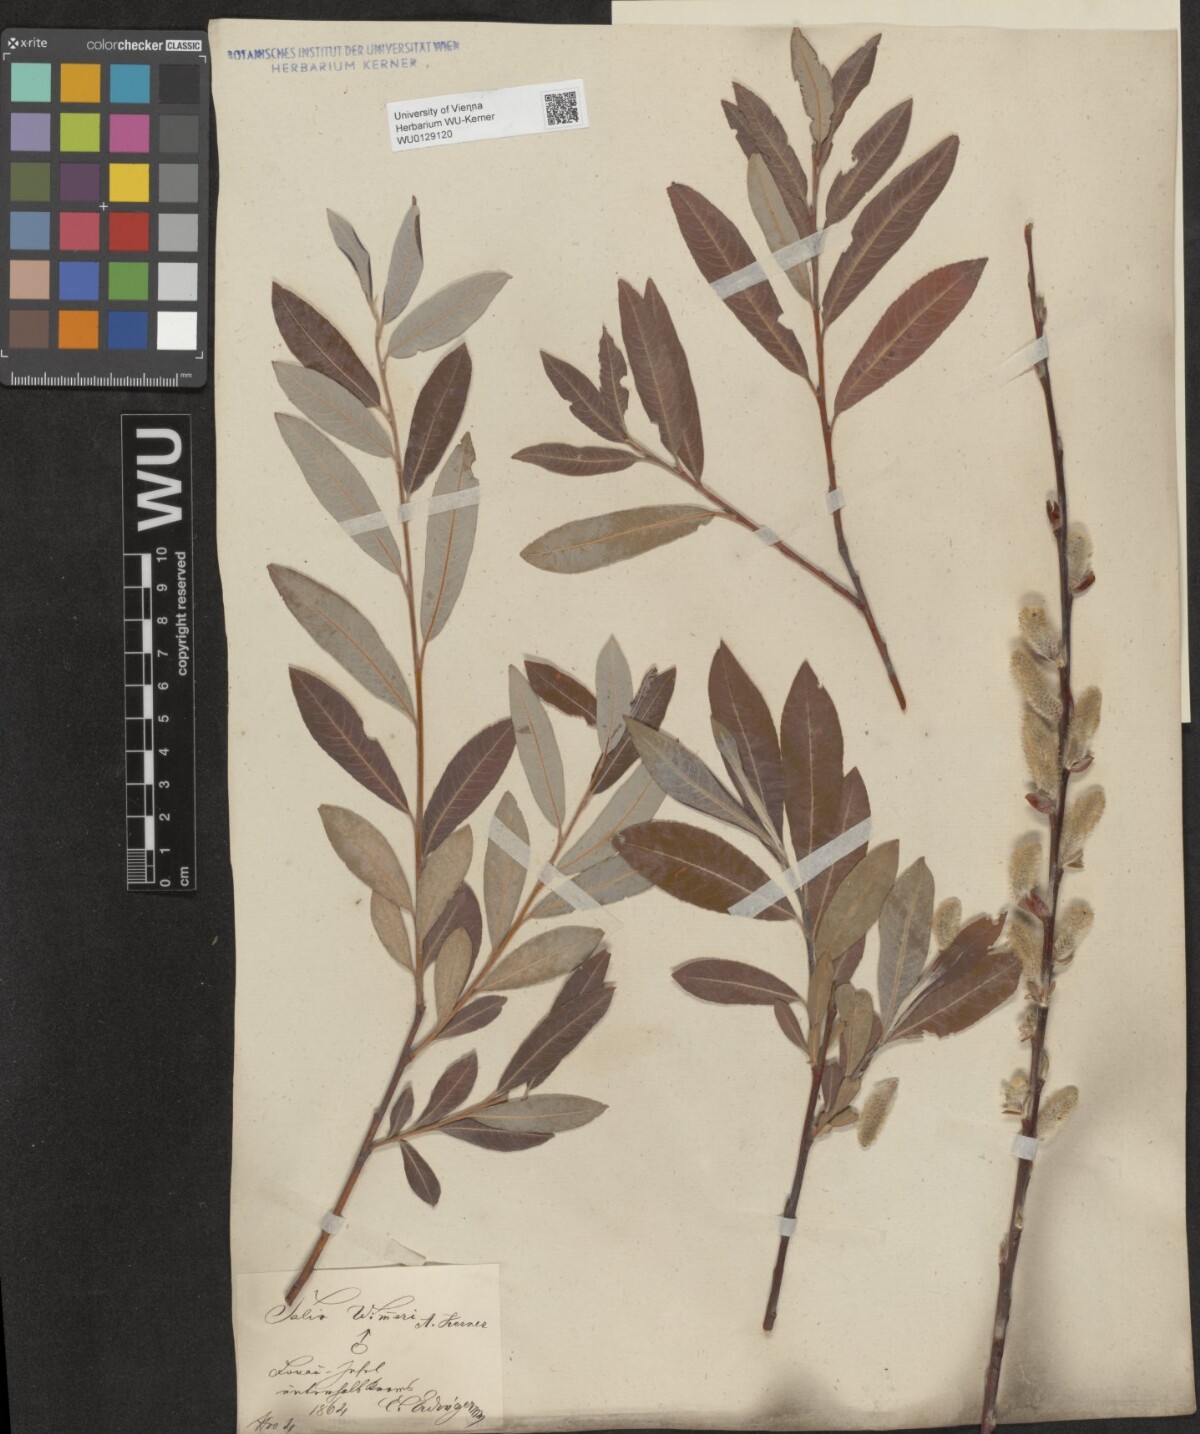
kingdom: Plantae
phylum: Tracheophyta
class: Magnoliopsida
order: Malpighiales
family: Salicaceae
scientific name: Salicaceae
